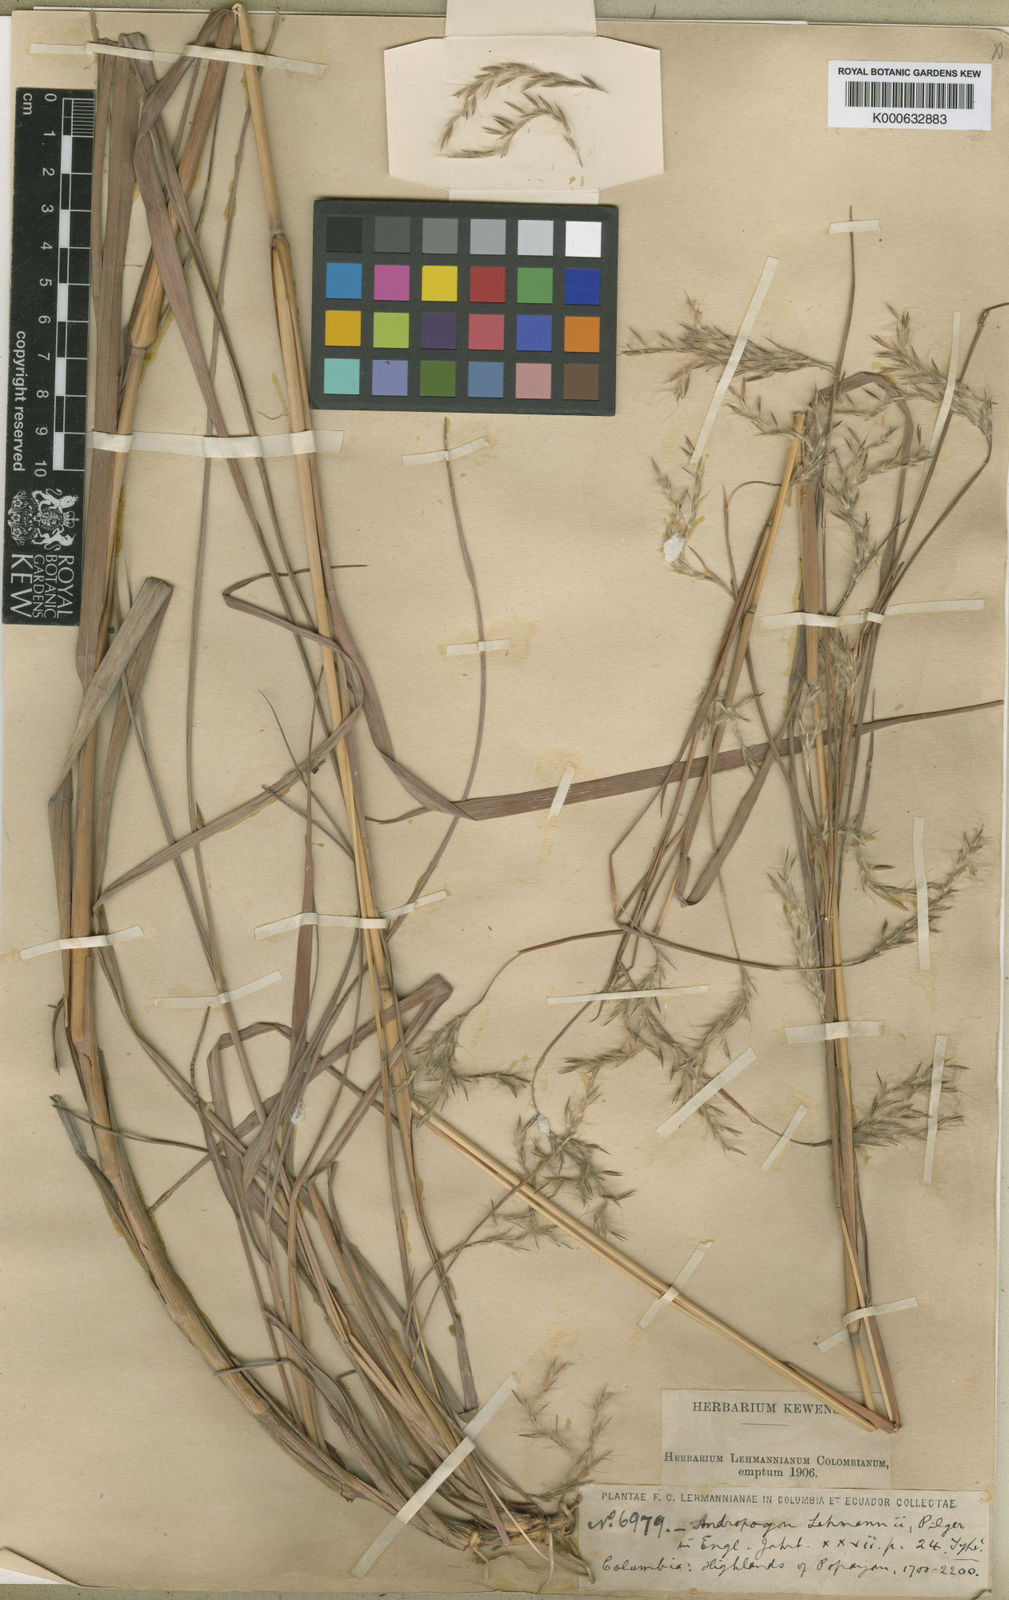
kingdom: Plantae
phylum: Tracheophyta
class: Liliopsida
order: Poales
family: Poaceae
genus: Andropogon
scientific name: Andropogon lehmannii
